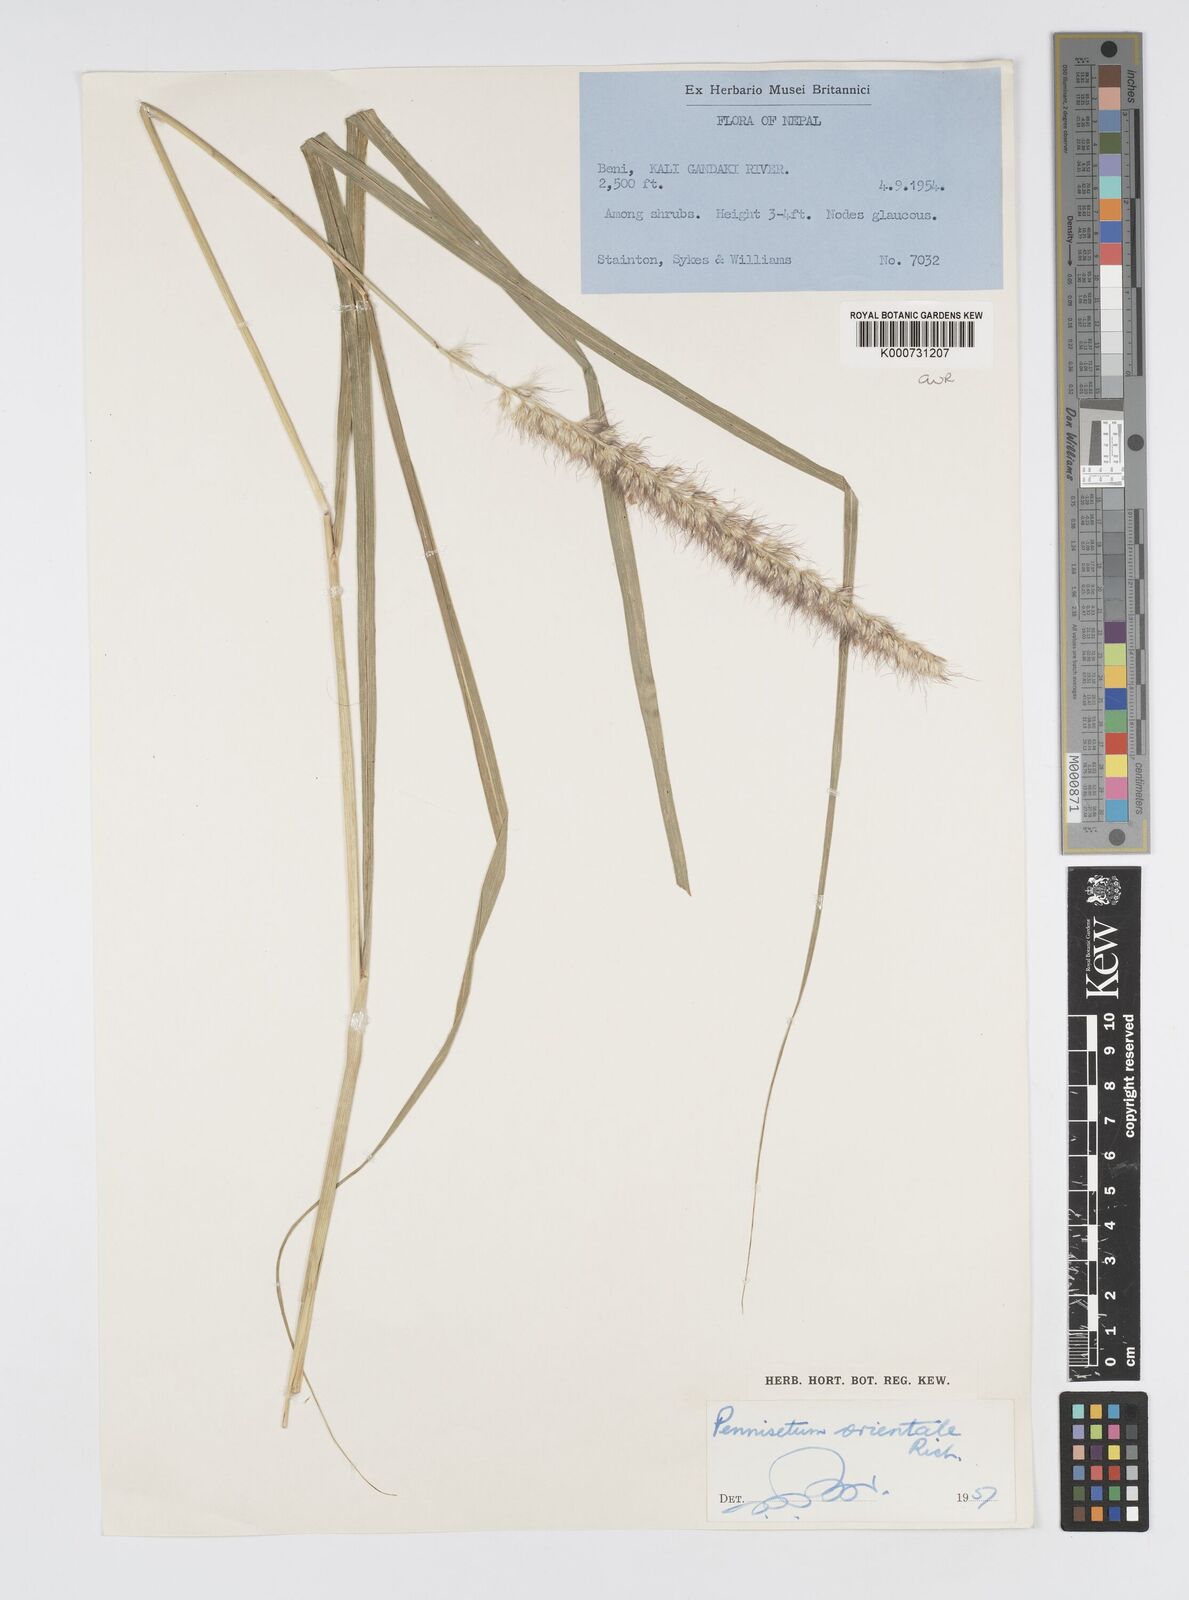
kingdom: Plantae
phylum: Tracheophyta
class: Liliopsida
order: Poales
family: Poaceae
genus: Cenchrus
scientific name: Cenchrus orientalis
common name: Oriental fountain grass
